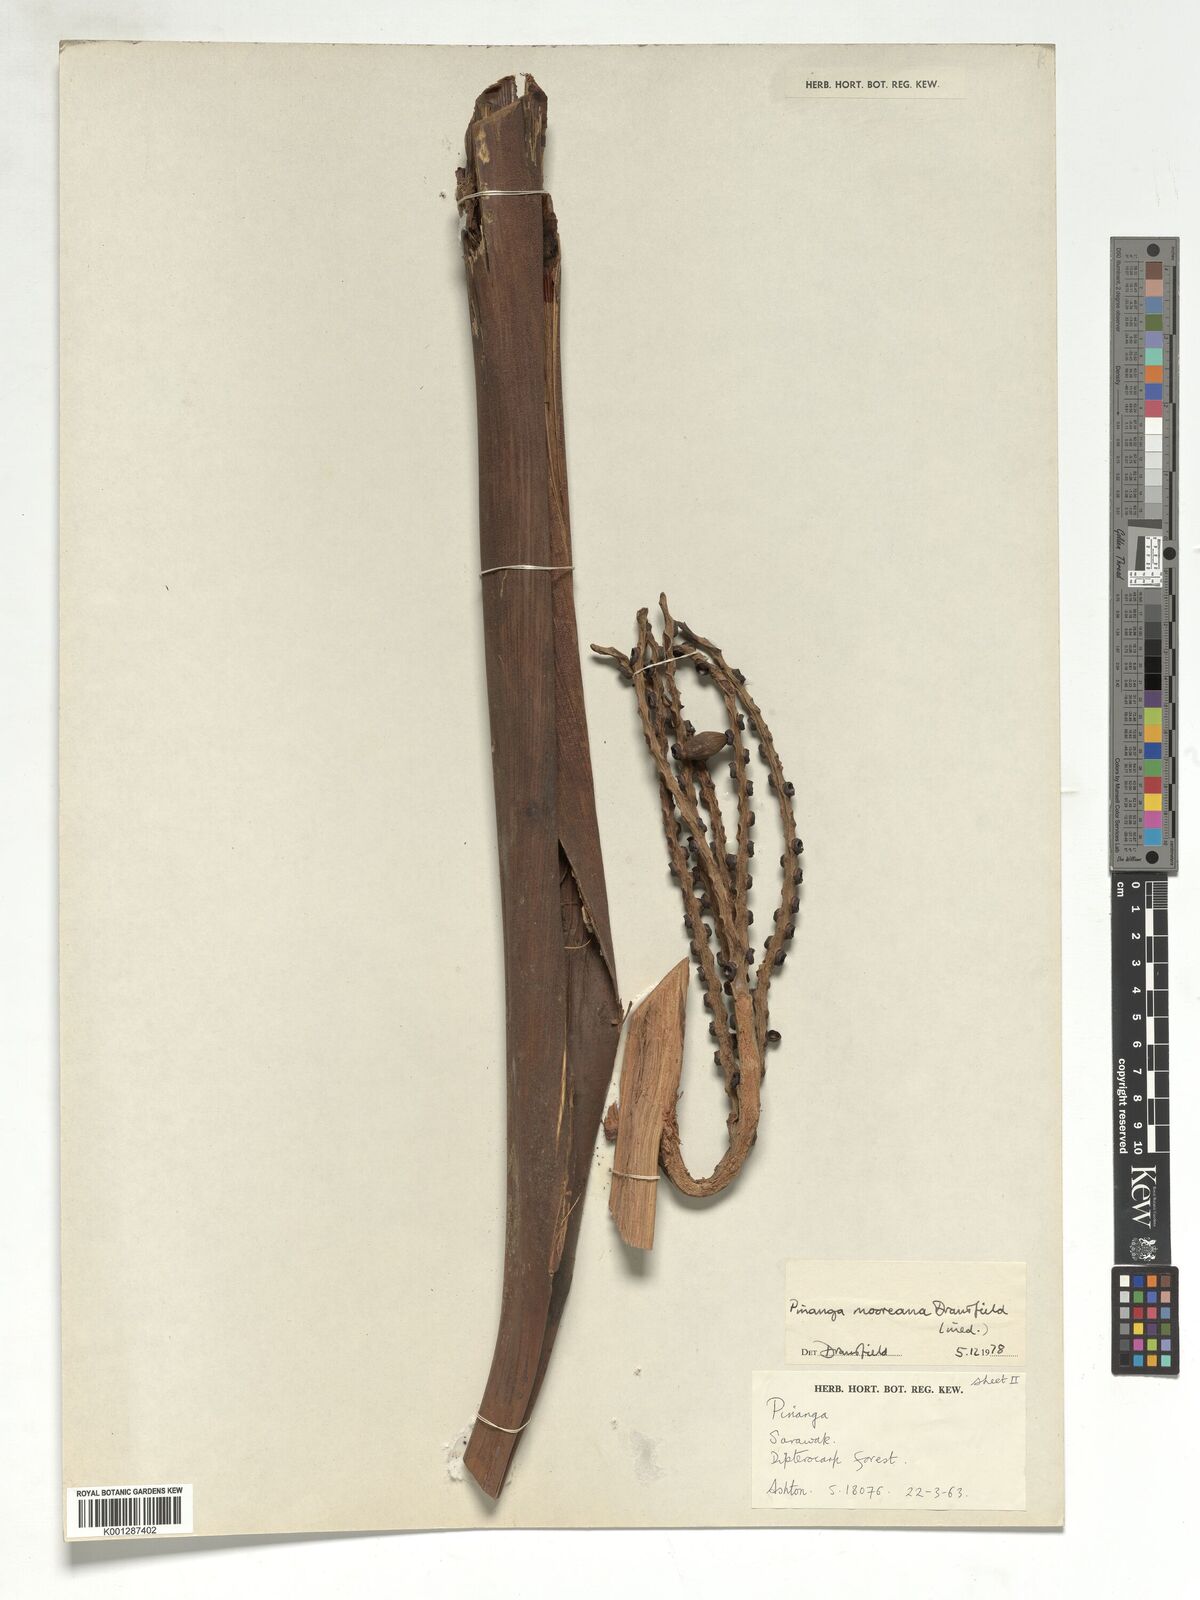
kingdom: Plantae
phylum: Tracheophyta
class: Liliopsida
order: Arecales
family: Arecaceae
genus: Pinanga
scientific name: Pinanga mooreana
